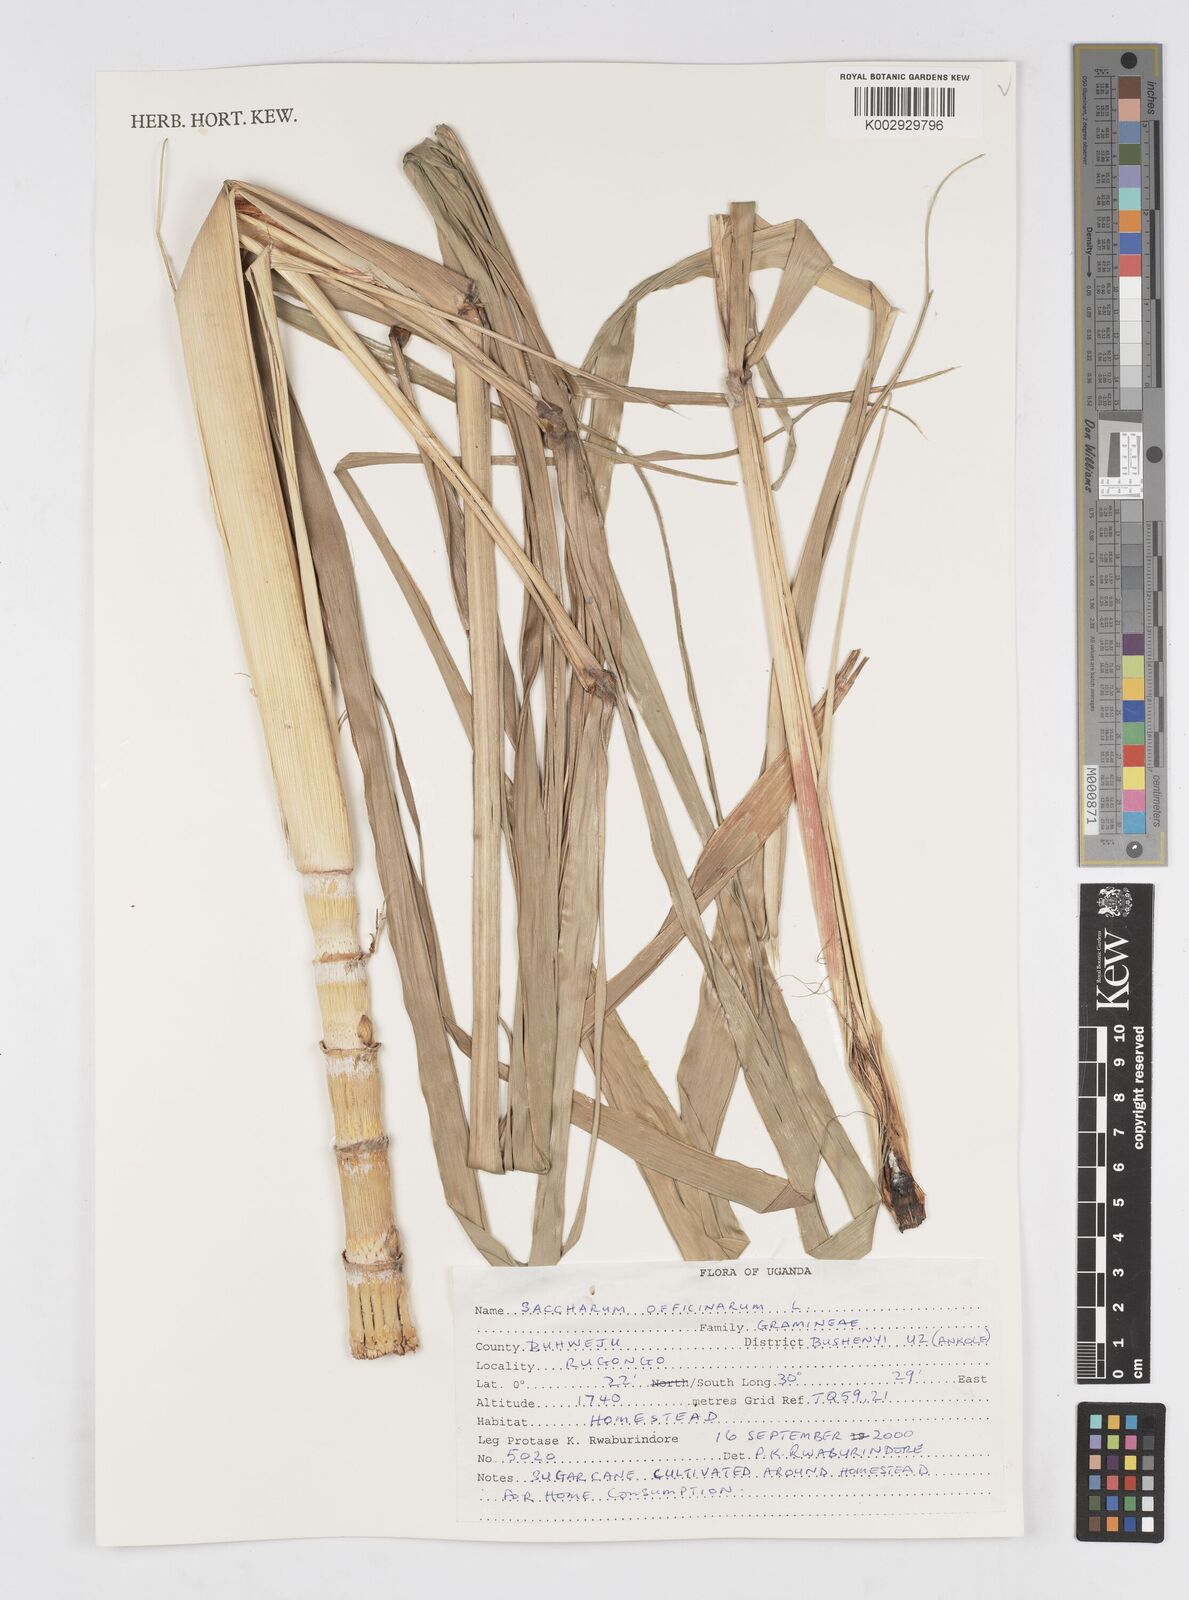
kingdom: Plantae
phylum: Tracheophyta
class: Liliopsida
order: Poales
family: Poaceae
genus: Saccharum
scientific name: Saccharum officinarum
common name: Sugarcane
